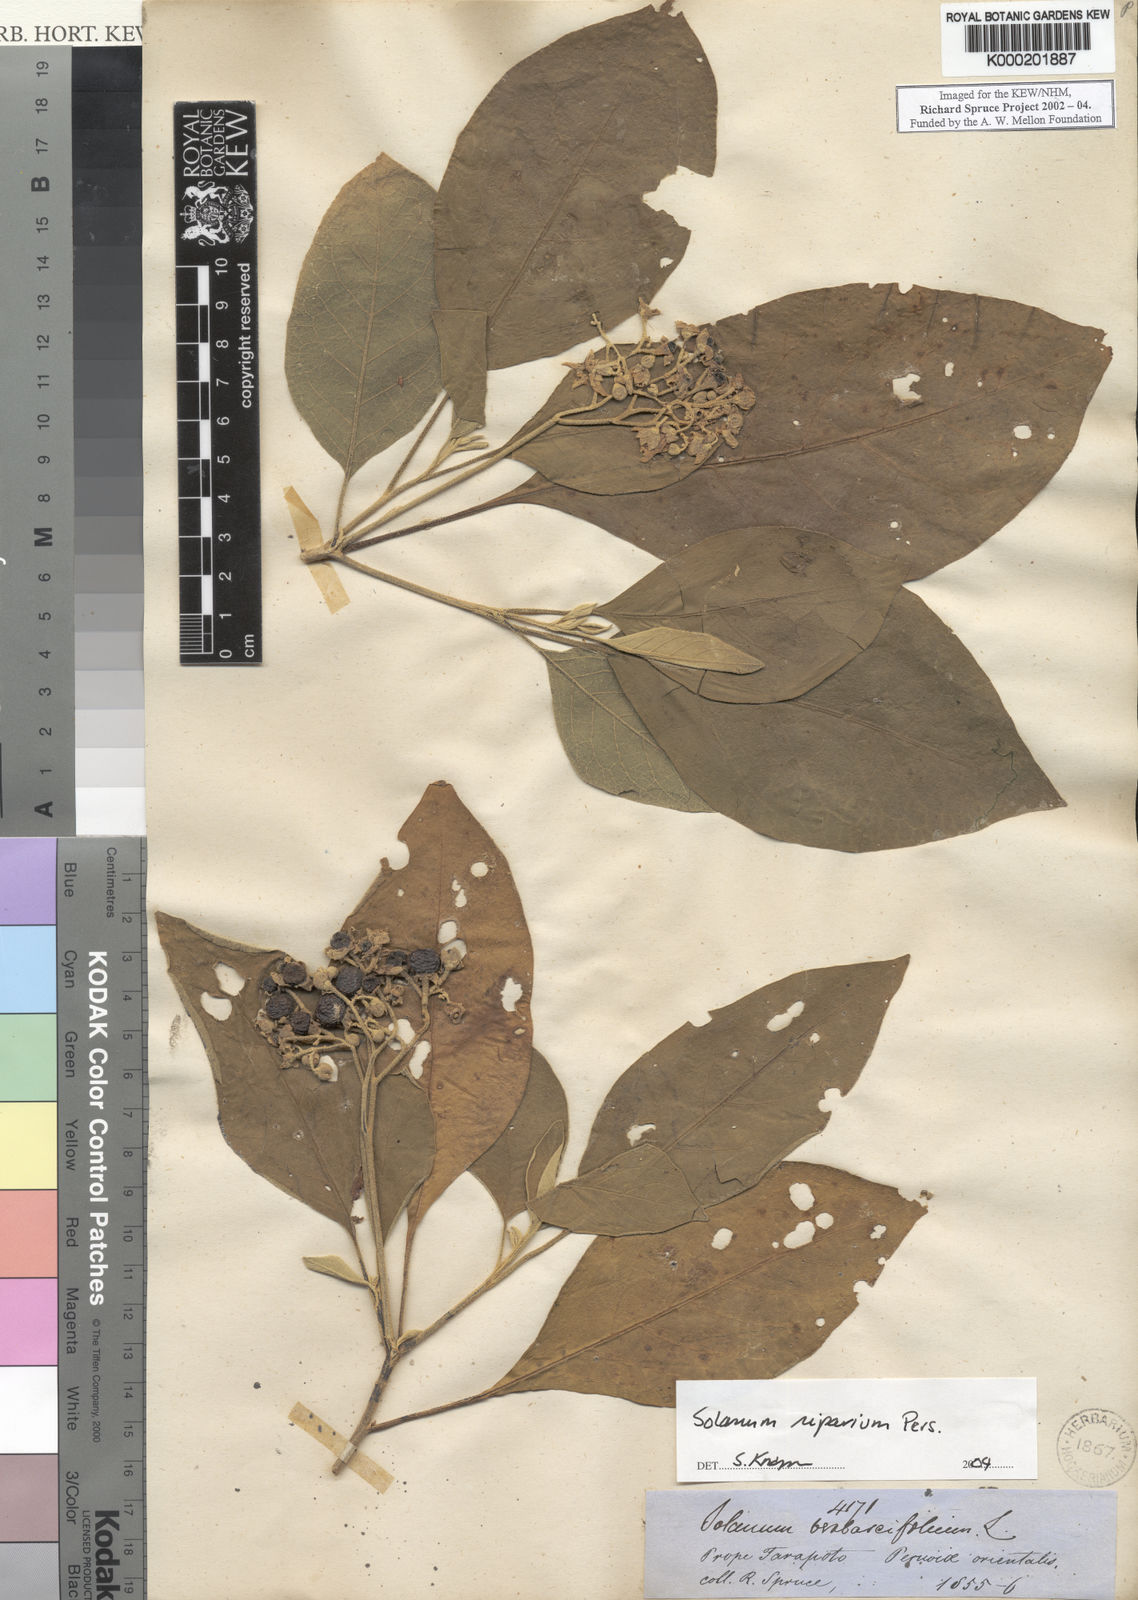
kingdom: Plantae
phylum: Tracheophyta
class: Magnoliopsida
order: Solanales
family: Solanaceae
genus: Solanum
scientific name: Solanum riparium
